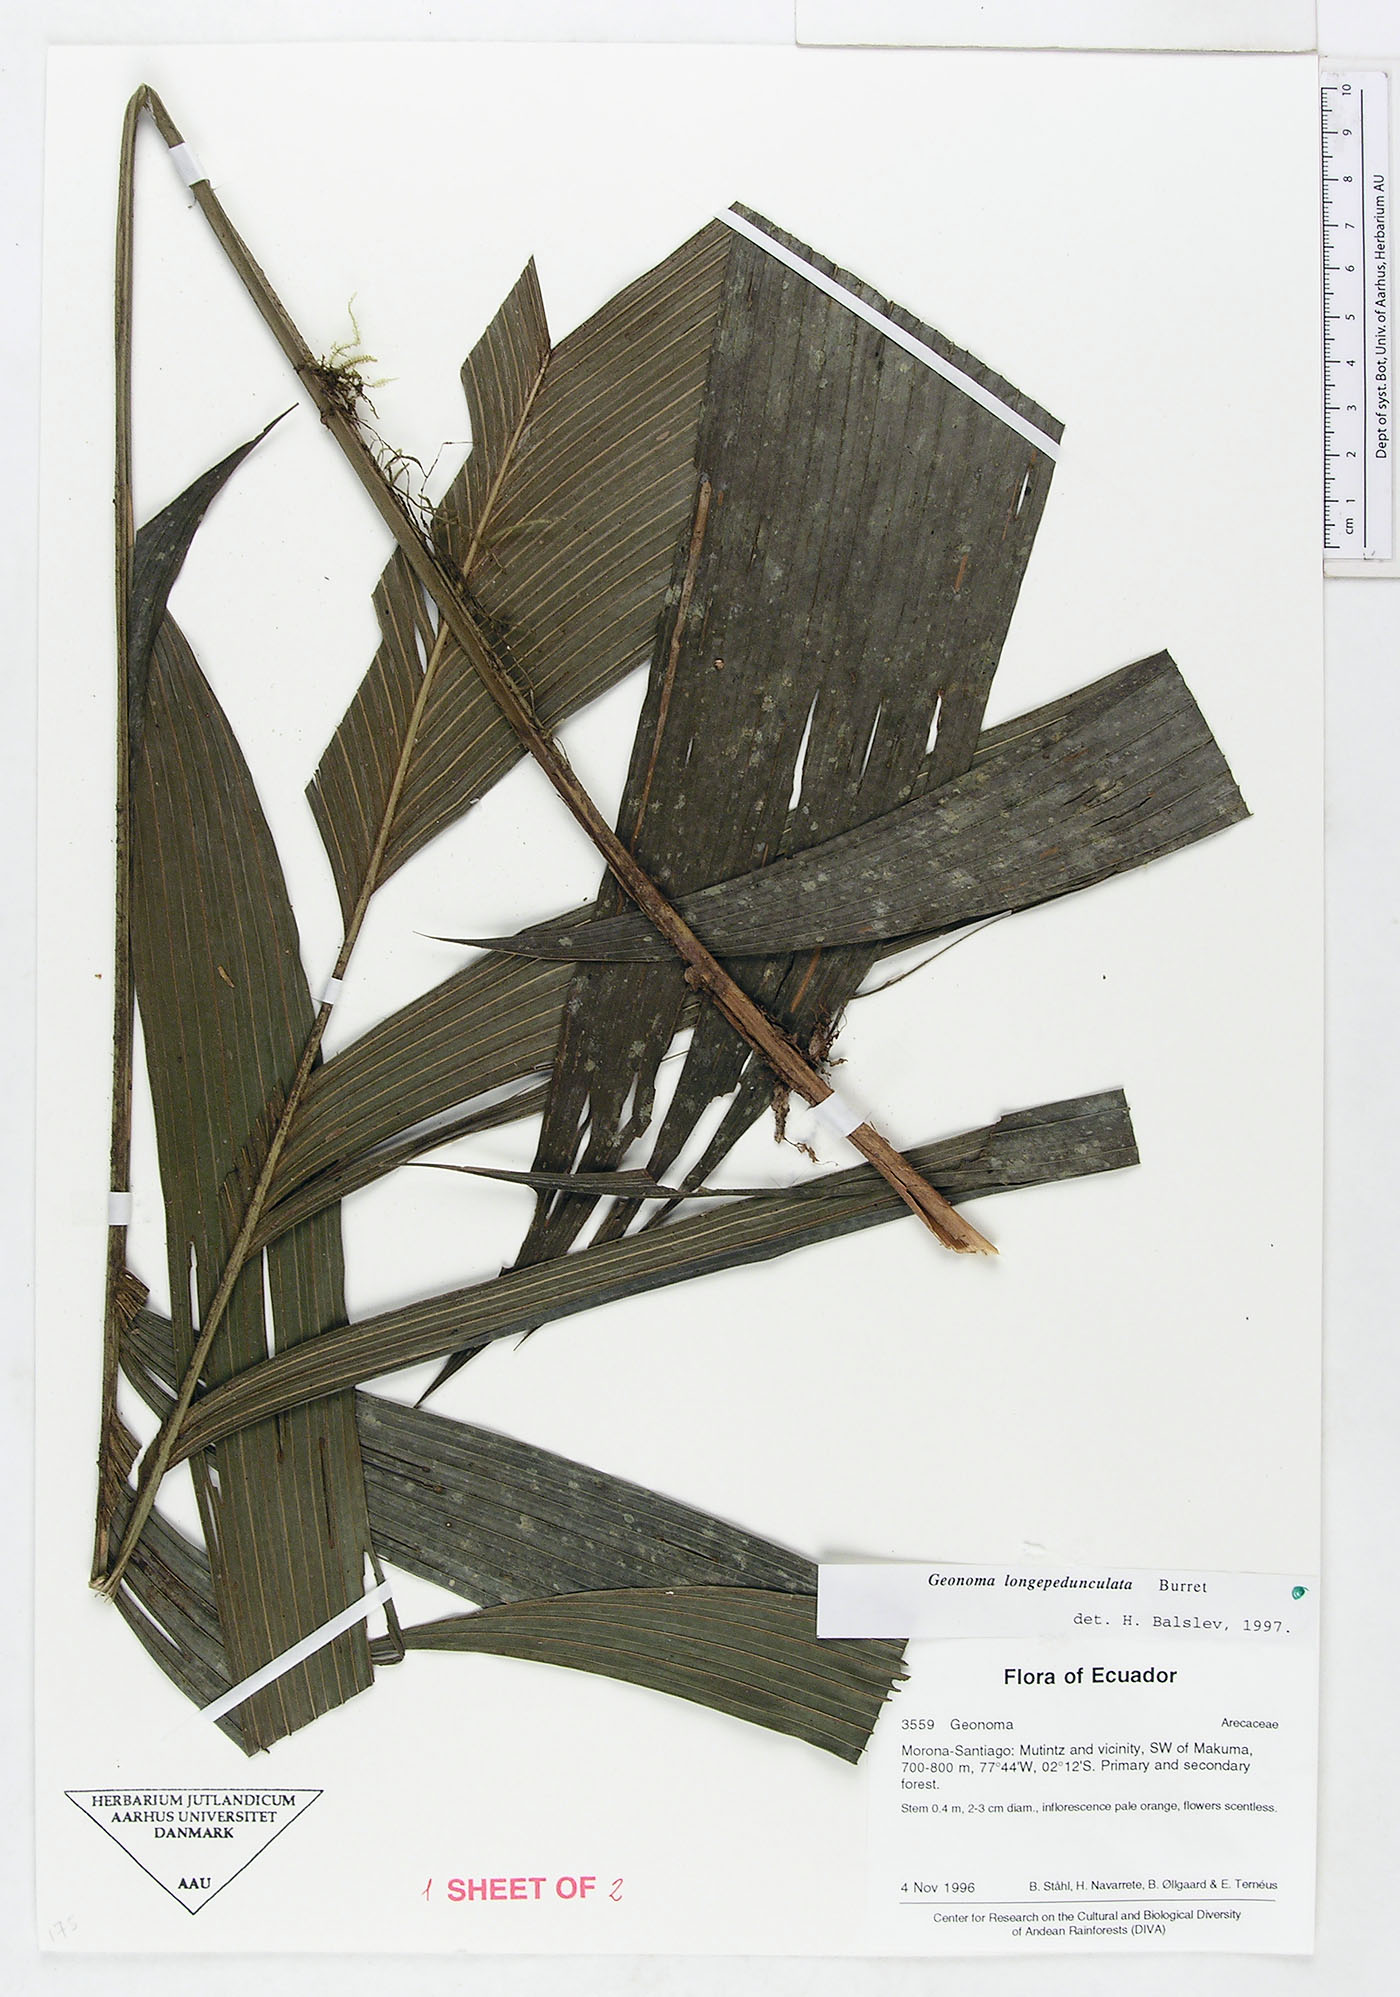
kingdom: Plantae
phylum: Tracheophyta
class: Liliopsida
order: Arecales
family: Arecaceae
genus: Geonoma
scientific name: Geonoma longepedunculata
